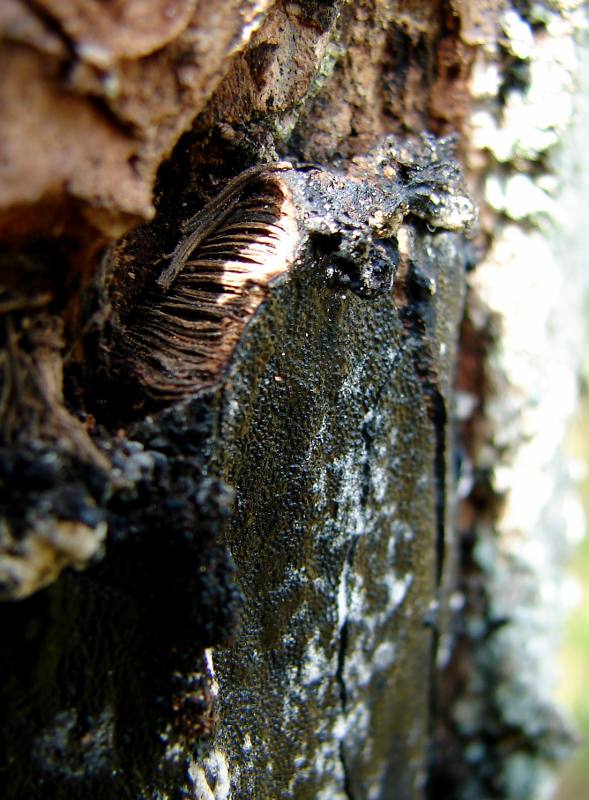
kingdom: Fungi
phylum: Ascomycota
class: Sordariomycetes
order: Boliniales
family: Boliniaceae
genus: Camarops
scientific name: Camarops polysperma
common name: elle-kulsnegl
